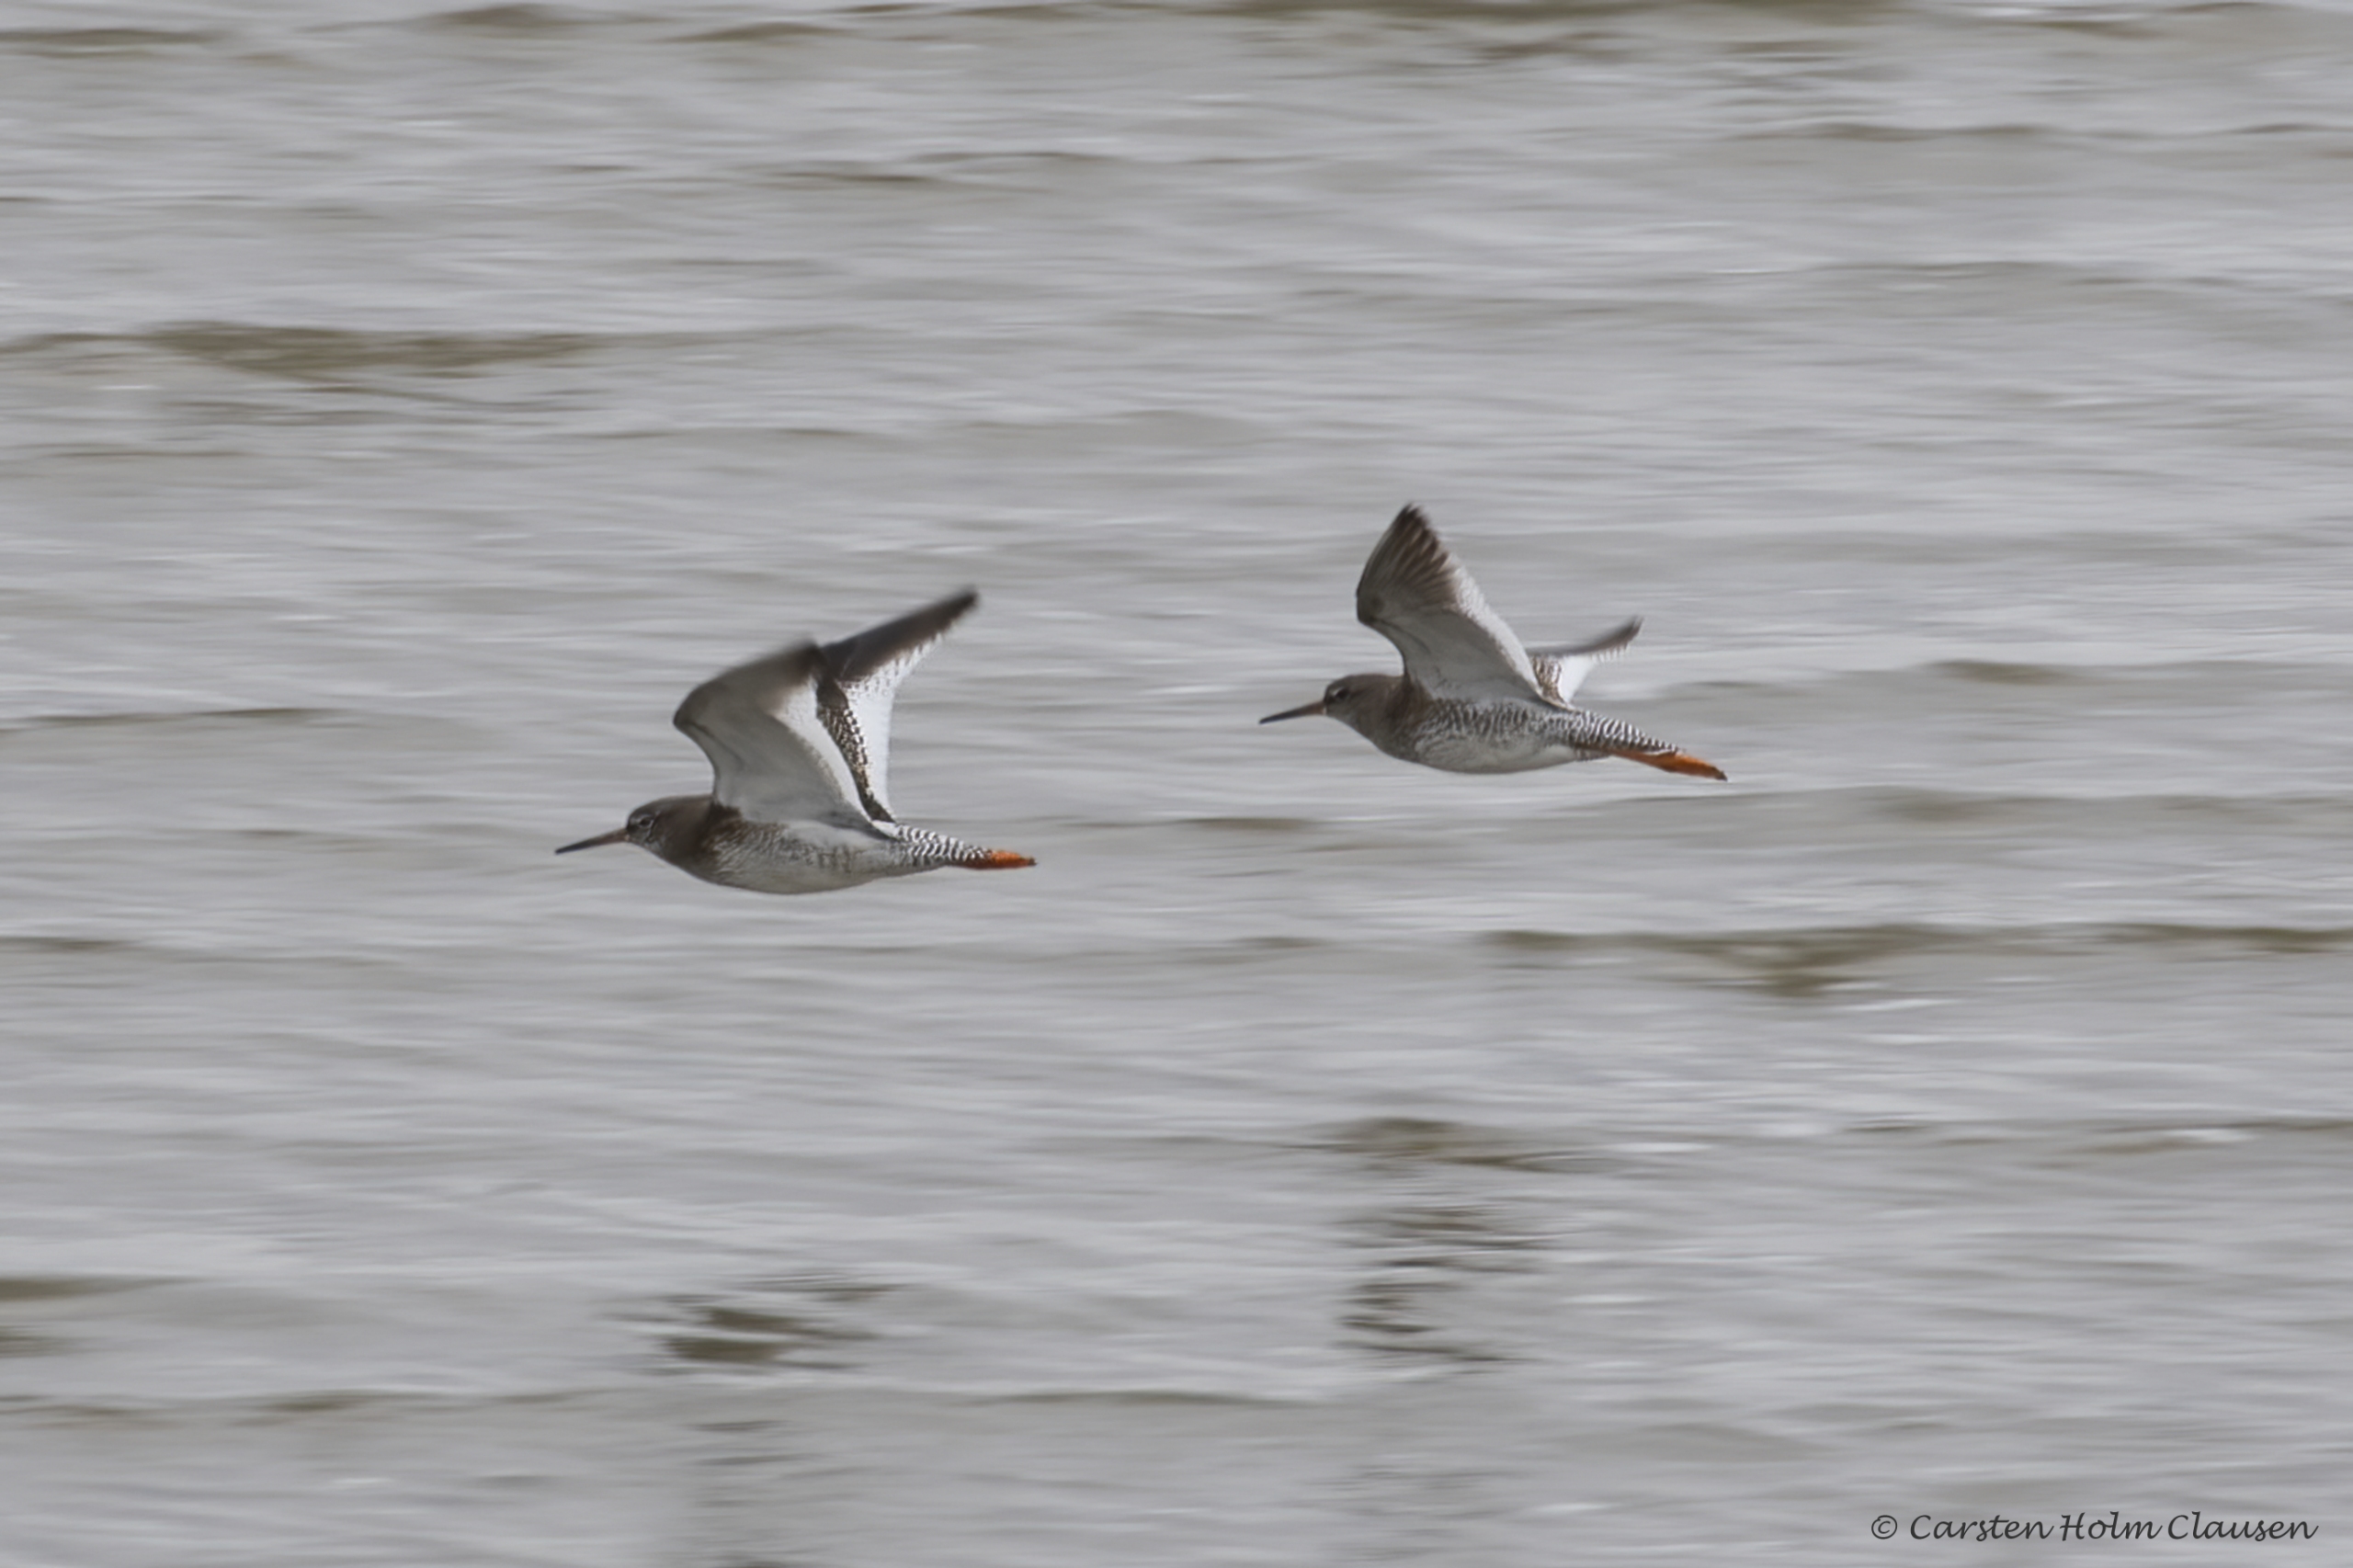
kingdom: Animalia
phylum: Chordata
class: Aves
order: Charadriiformes
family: Scolopacidae
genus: Tringa
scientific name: Tringa totanus
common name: Rødben
